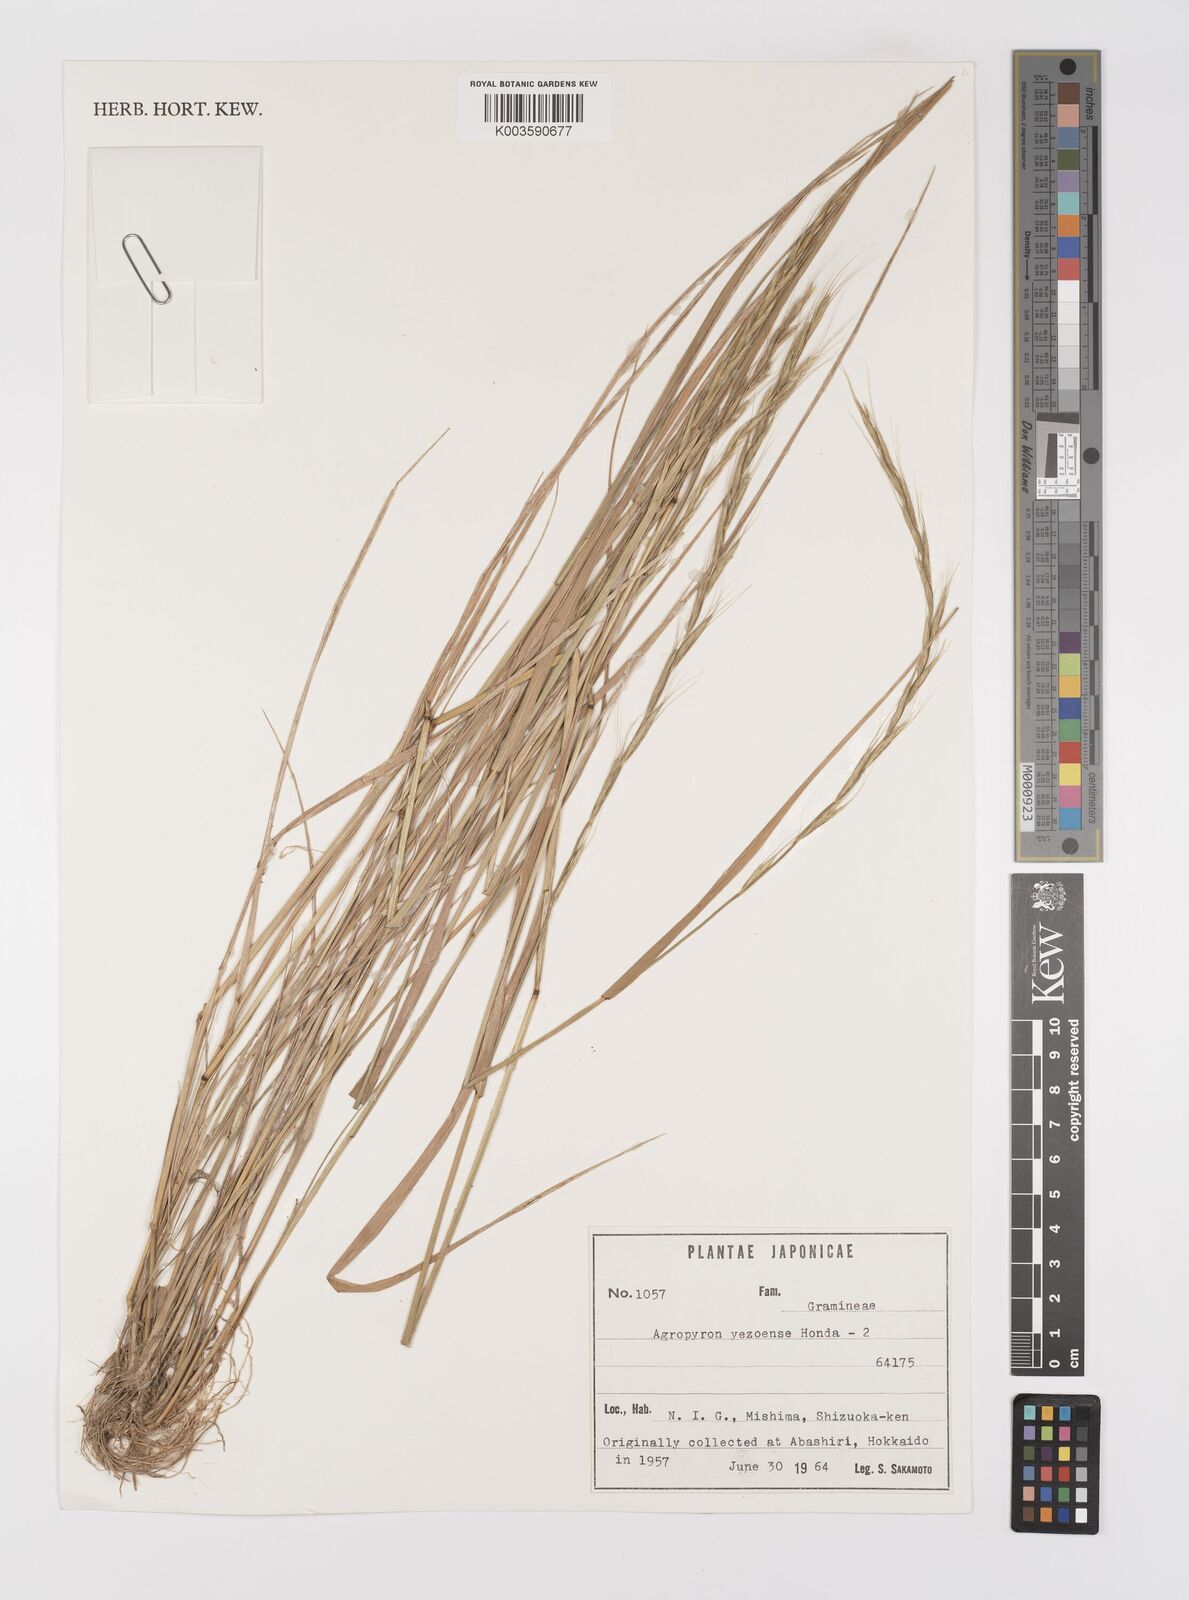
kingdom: Plantae
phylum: Tracheophyta
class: Liliopsida
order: Poales
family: Poaceae
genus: Elymus
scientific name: Elymus nipponicus
